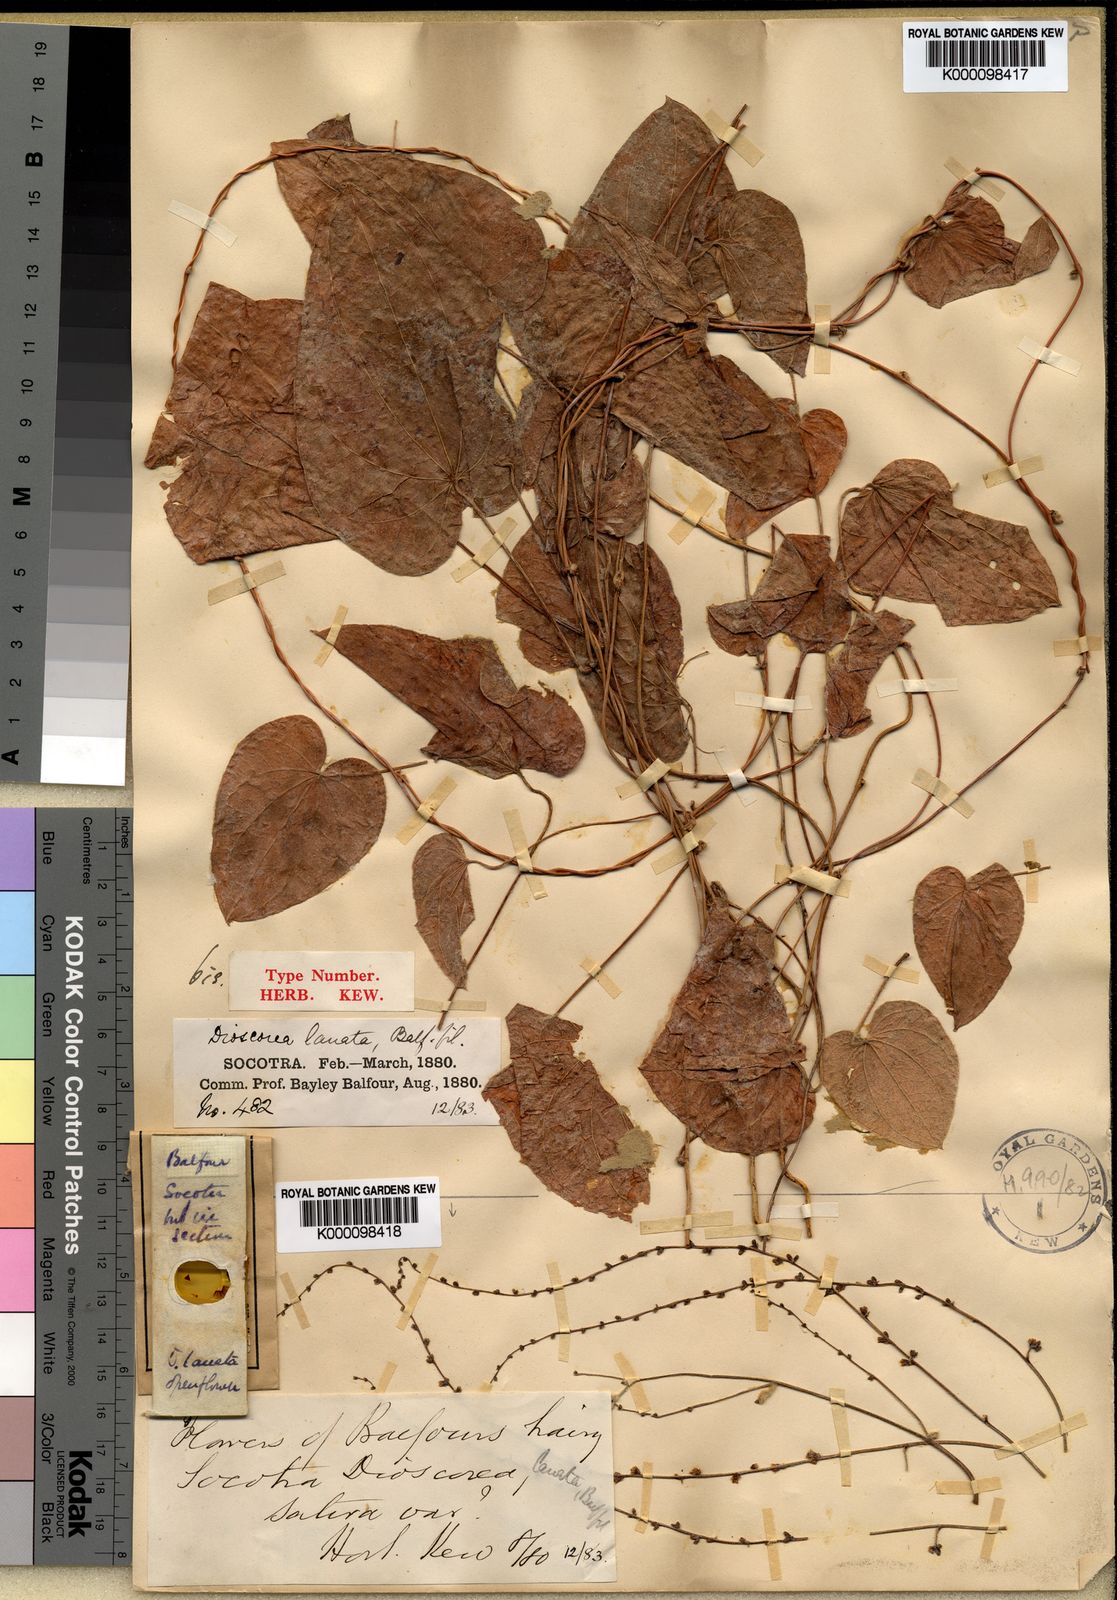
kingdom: Plantae
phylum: Tracheophyta
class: Liliopsida
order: Dioscoreales
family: Dioscoreaceae
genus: Dioscorea
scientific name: Dioscorea lanata
